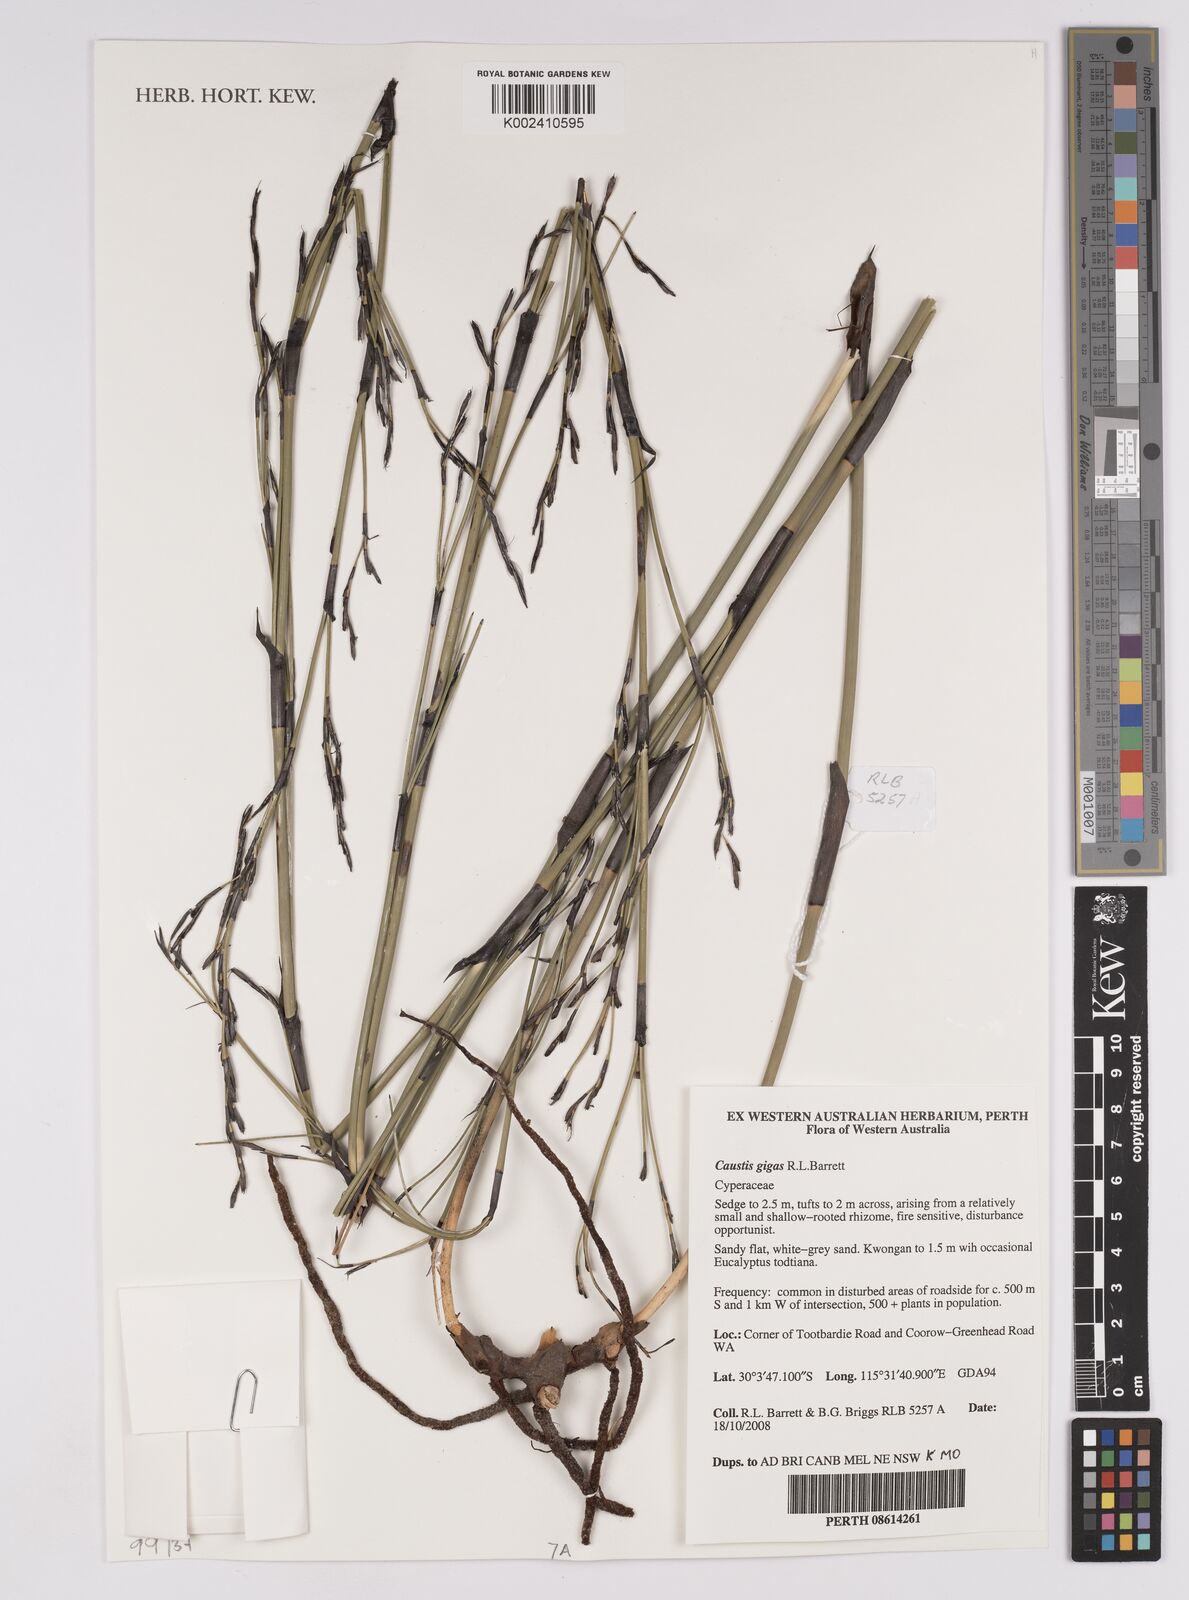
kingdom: Plantae
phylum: Tracheophyta
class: Liliopsida
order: Poales
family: Cyperaceae
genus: Caustis
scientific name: Caustis gigas
